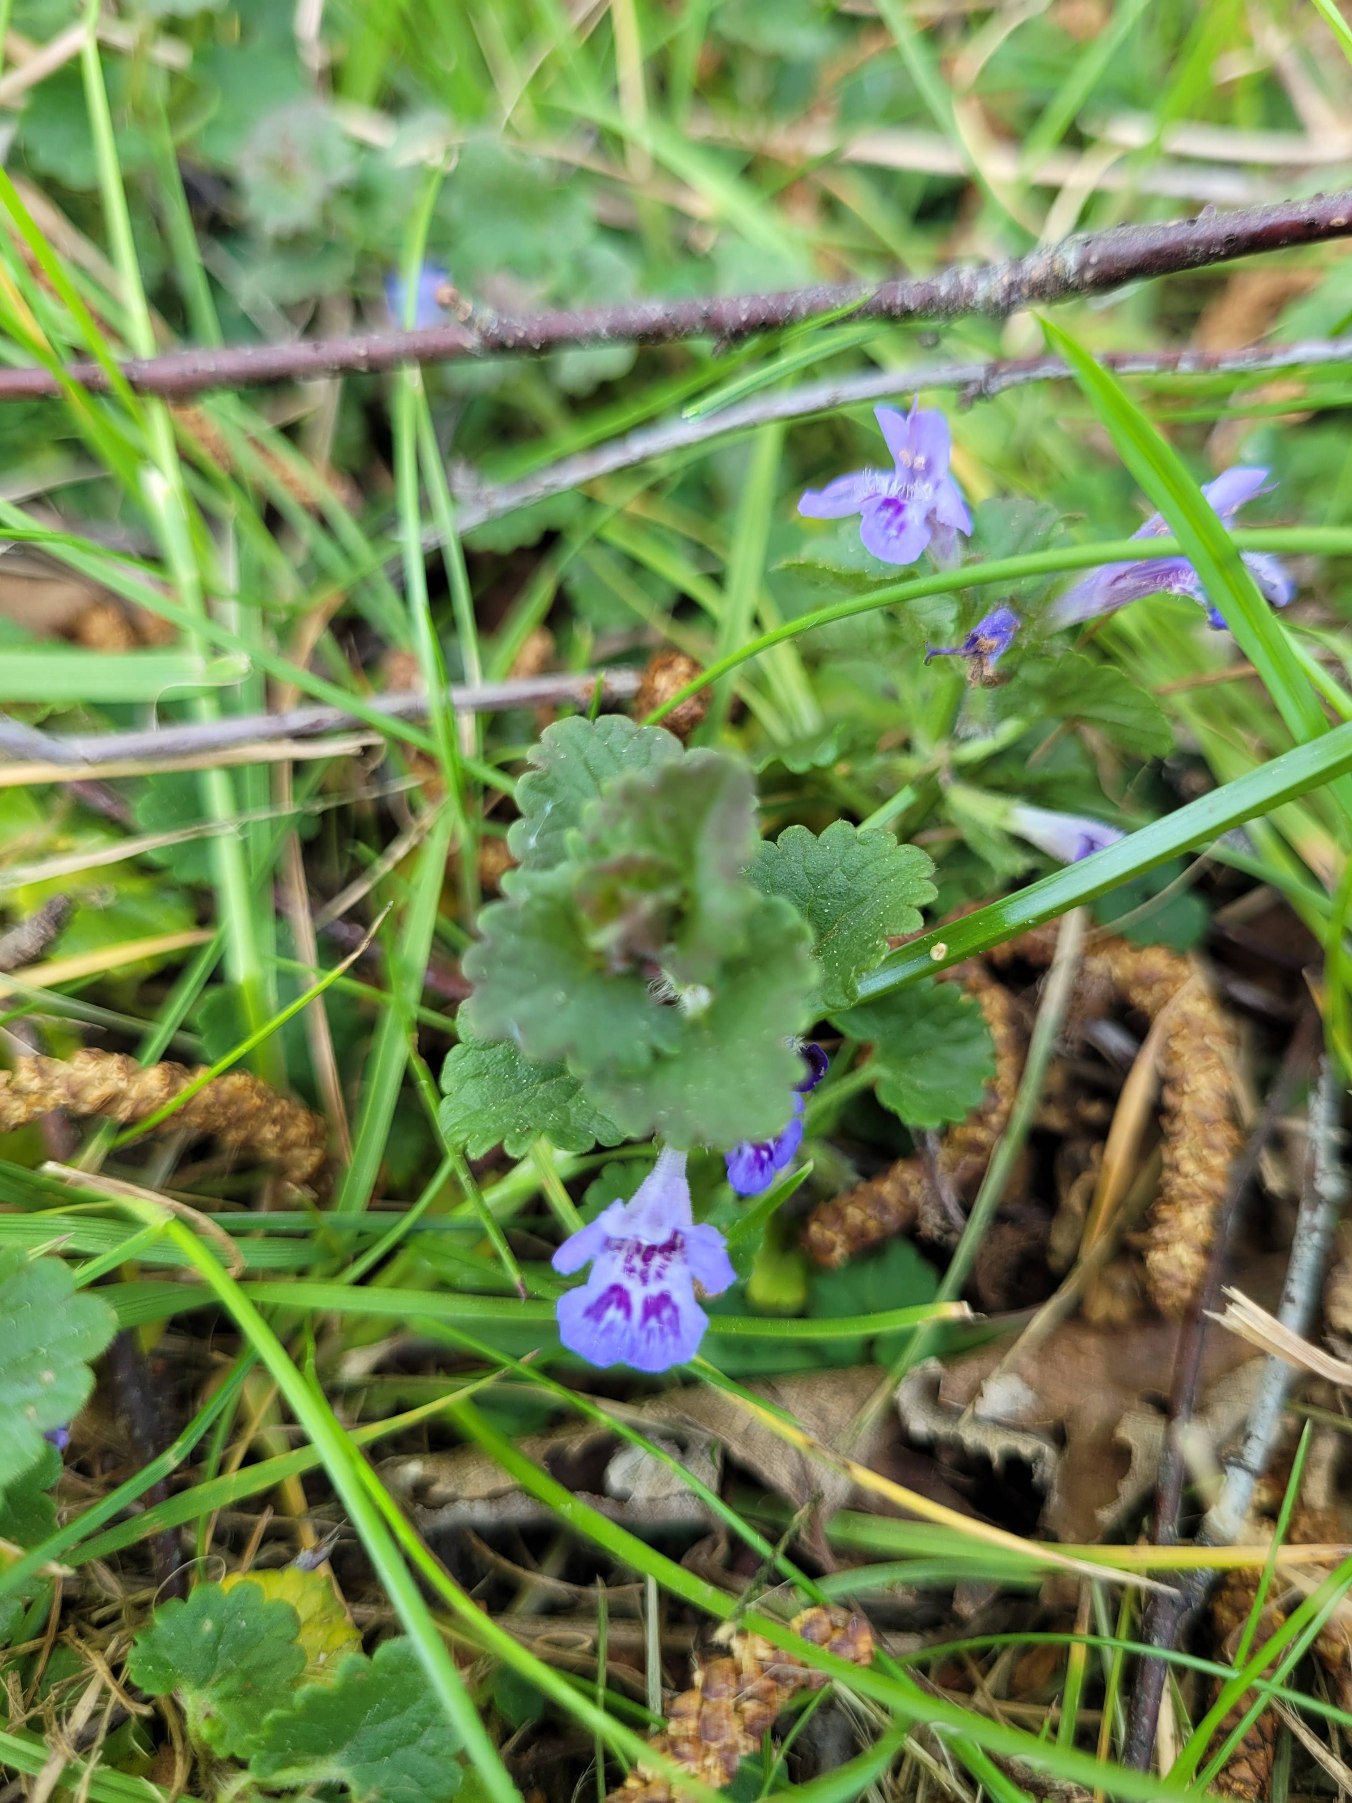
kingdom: Plantae
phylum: Tracheophyta
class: Magnoliopsida
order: Lamiales
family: Lamiaceae
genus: Glechoma
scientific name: Glechoma hederacea
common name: Korsknap
